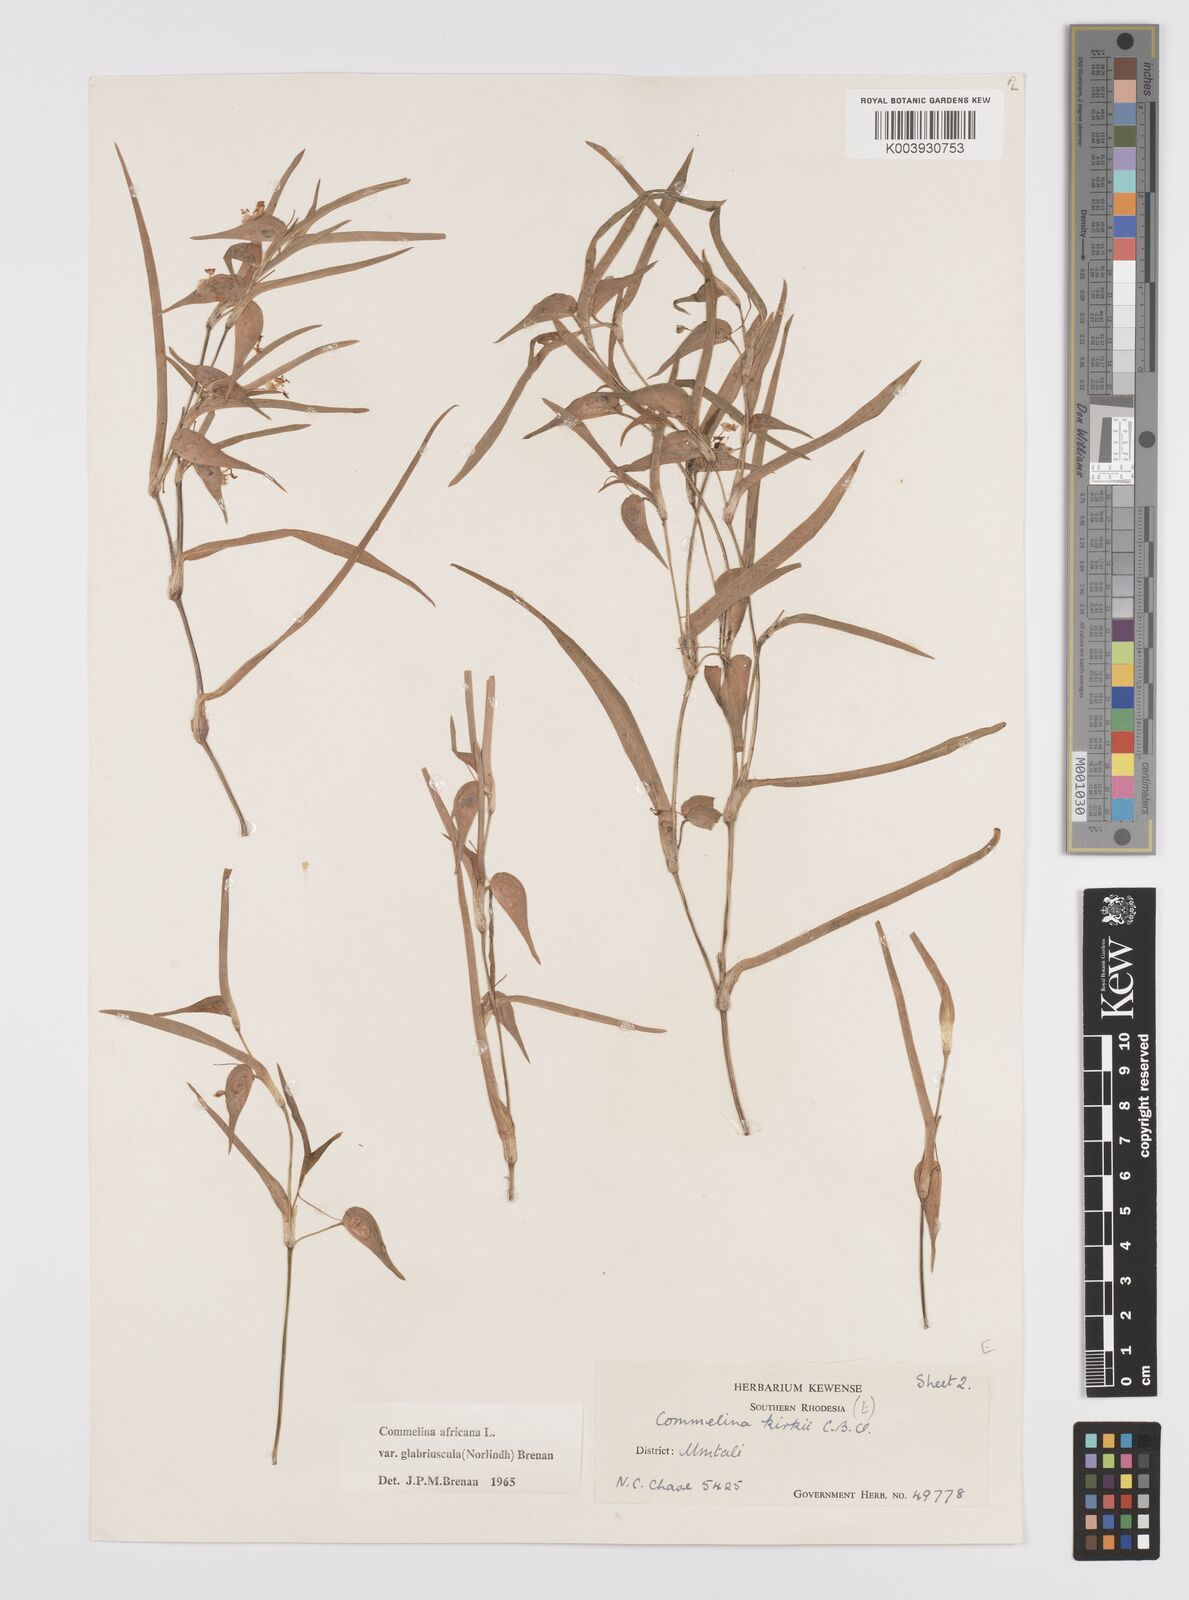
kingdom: Plantae
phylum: Tracheophyta
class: Liliopsida
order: Commelinales
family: Commelinaceae
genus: Commelina
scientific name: Commelina africana
